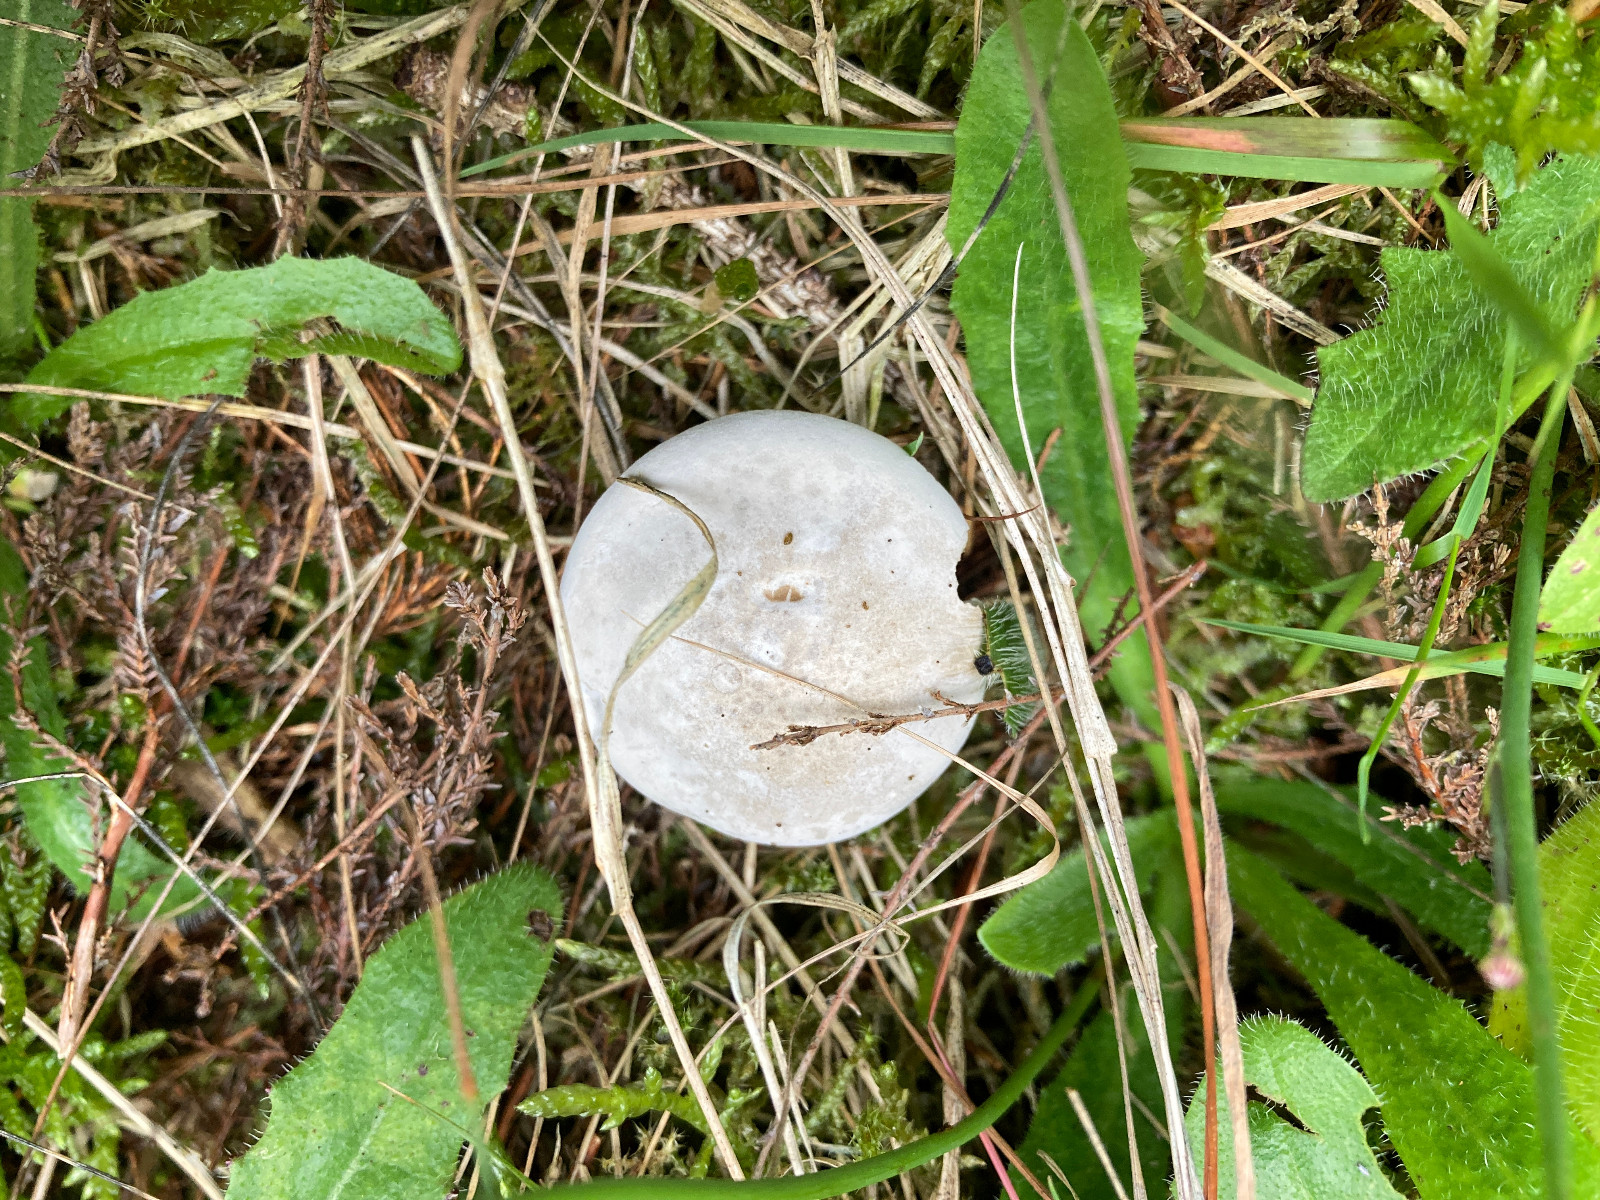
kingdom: Fungi
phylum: Basidiomycota
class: Agaricomycetes
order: Agaricales
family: Entolomataceae
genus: Clitopilus
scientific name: Clitopilus prunulus
